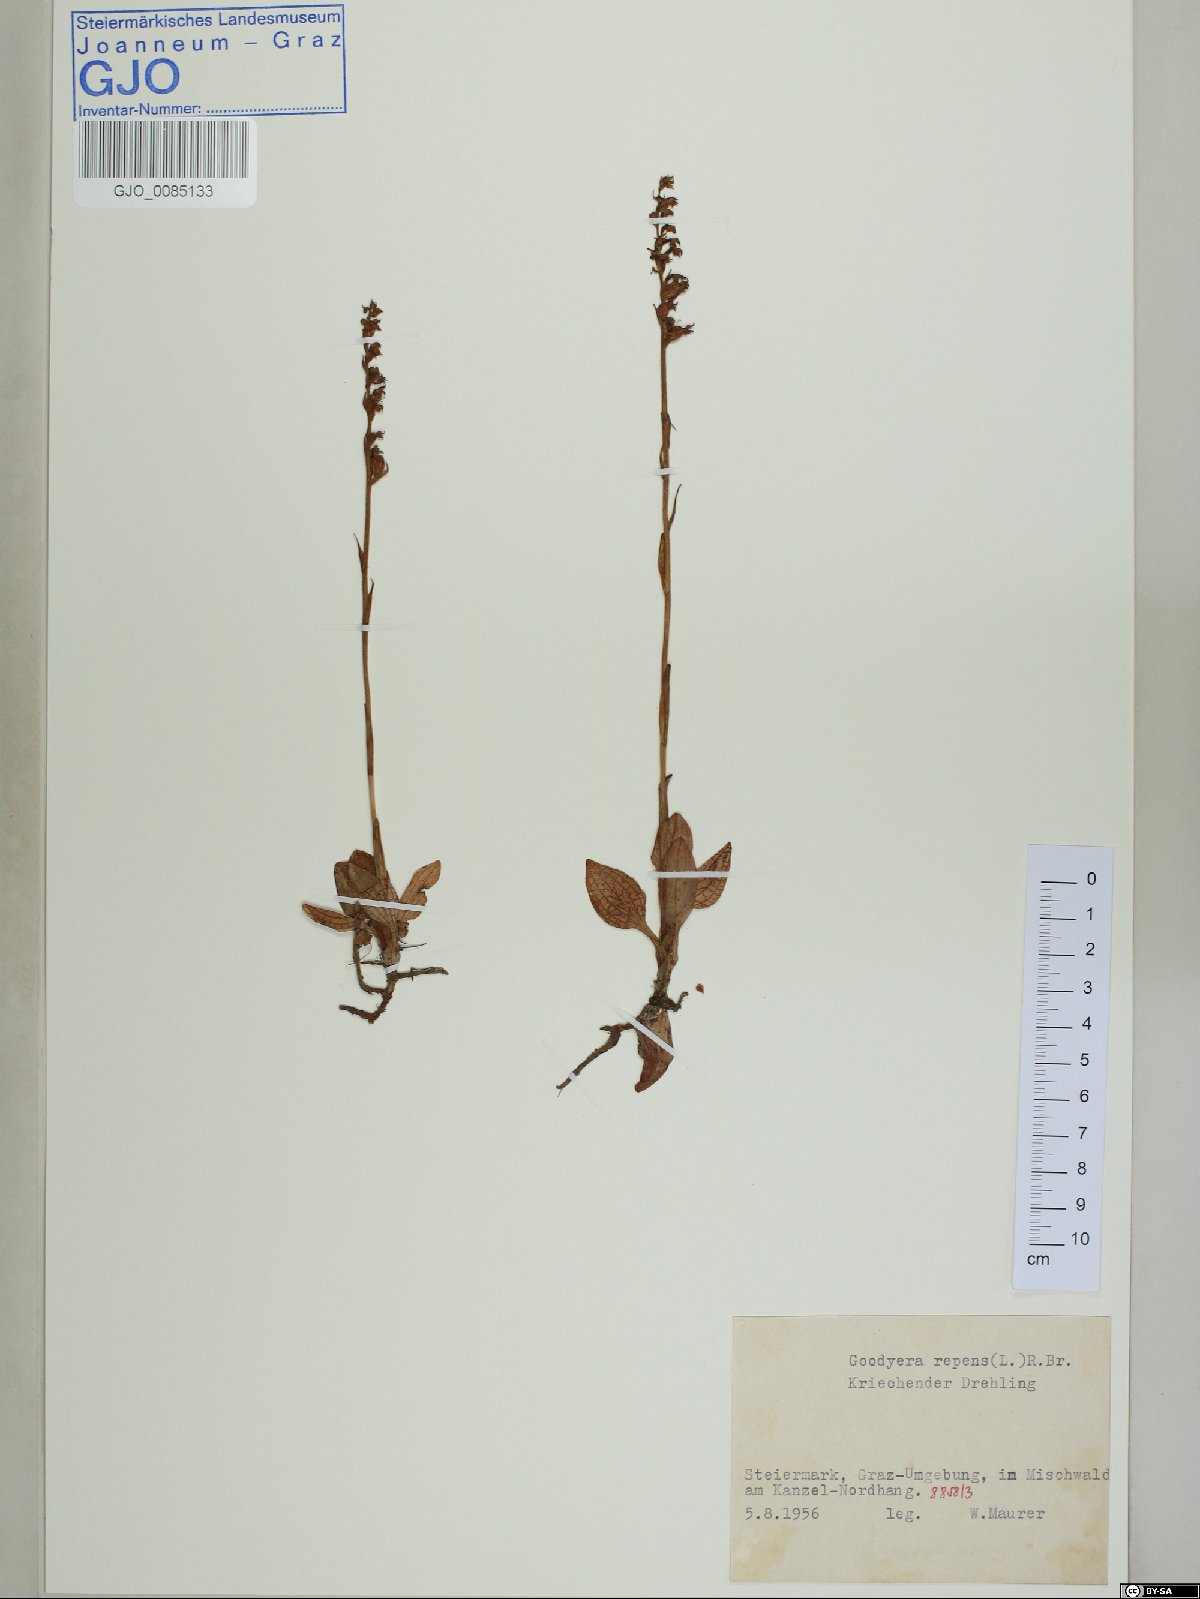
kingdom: Plantae
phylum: Tracheophyta
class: Liliopsida
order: Asparagales
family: Orchidaceae
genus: Gymnadenia
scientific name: Gymnadenia odoratissima
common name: Scented gymnadenia
